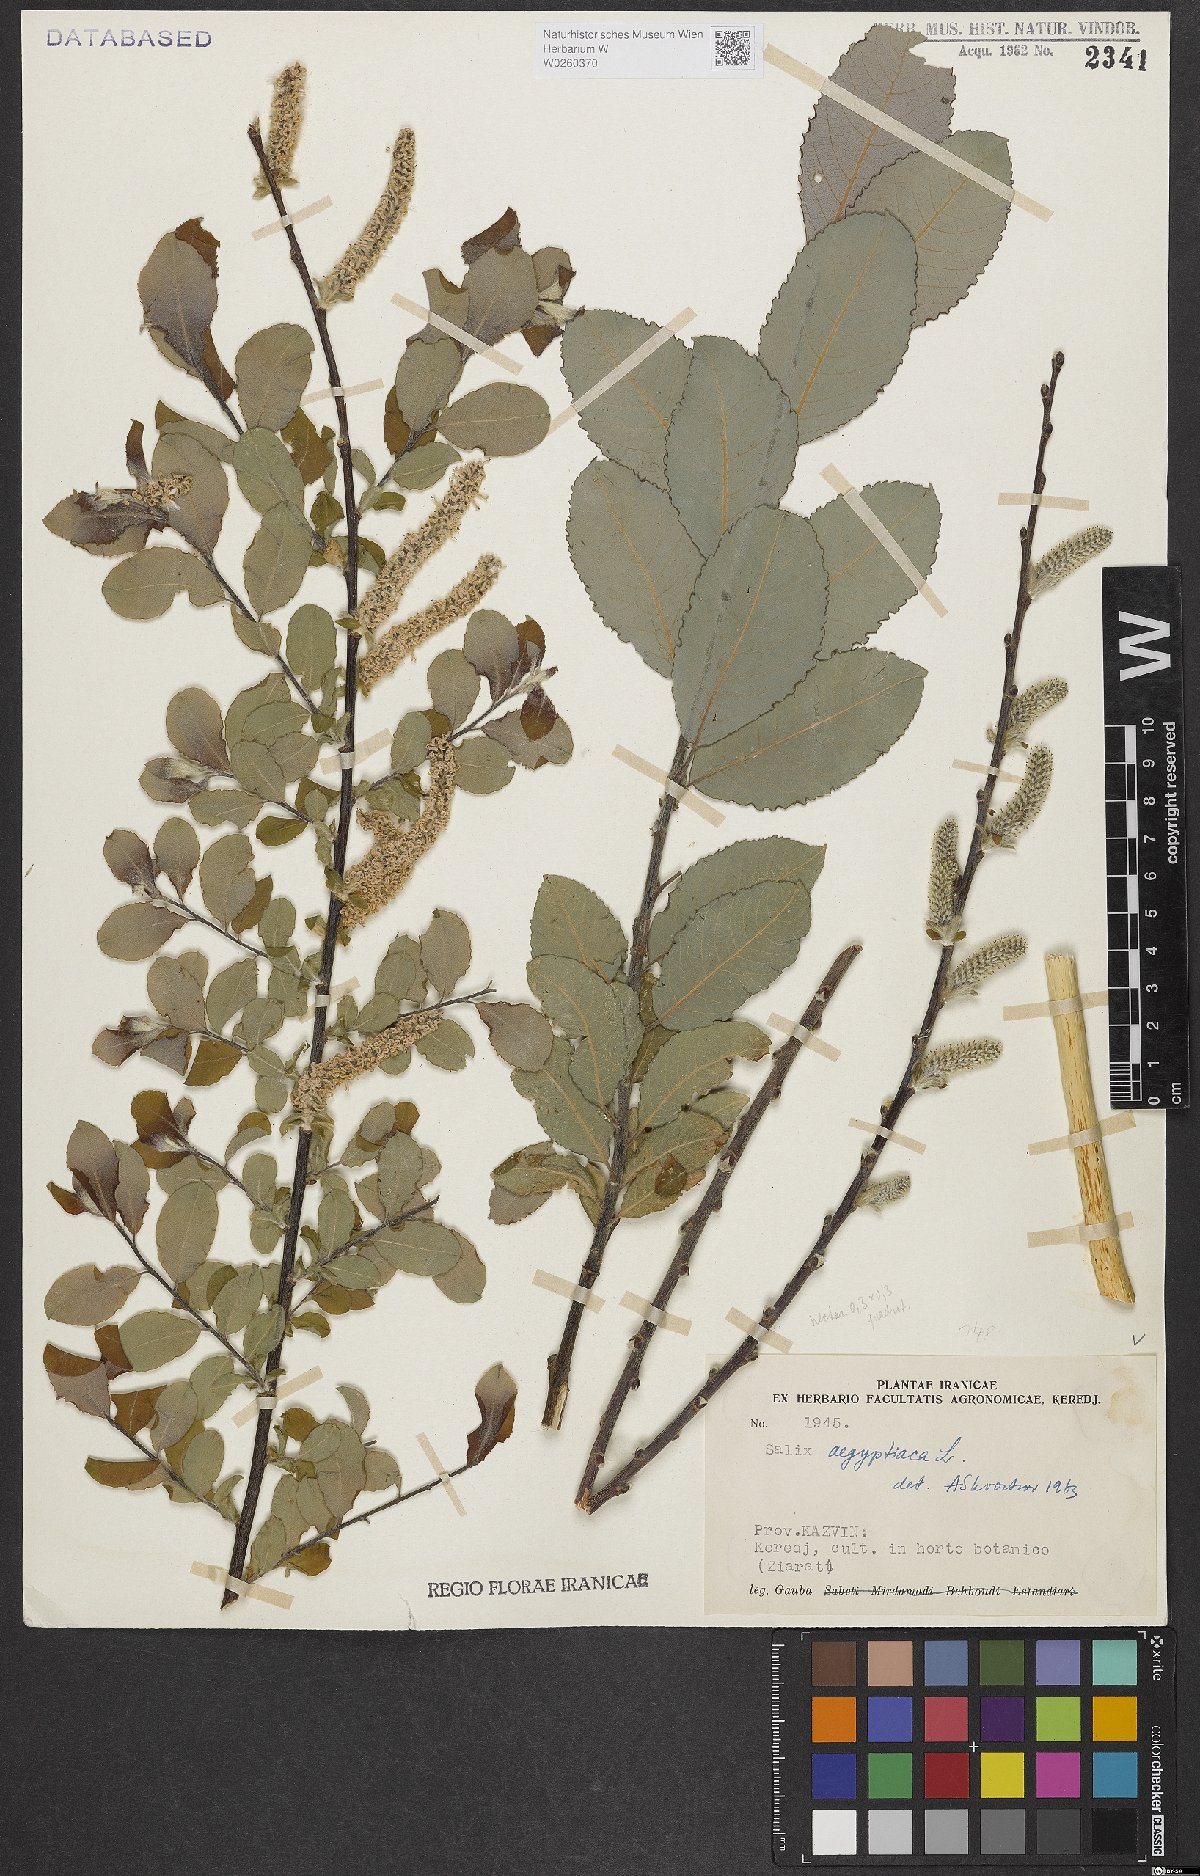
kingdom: Plantae
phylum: Tracheophyta
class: Magnoliopsida
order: Malpighiales
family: Salicaceae
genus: Salix
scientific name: Salix aegyptiaca
